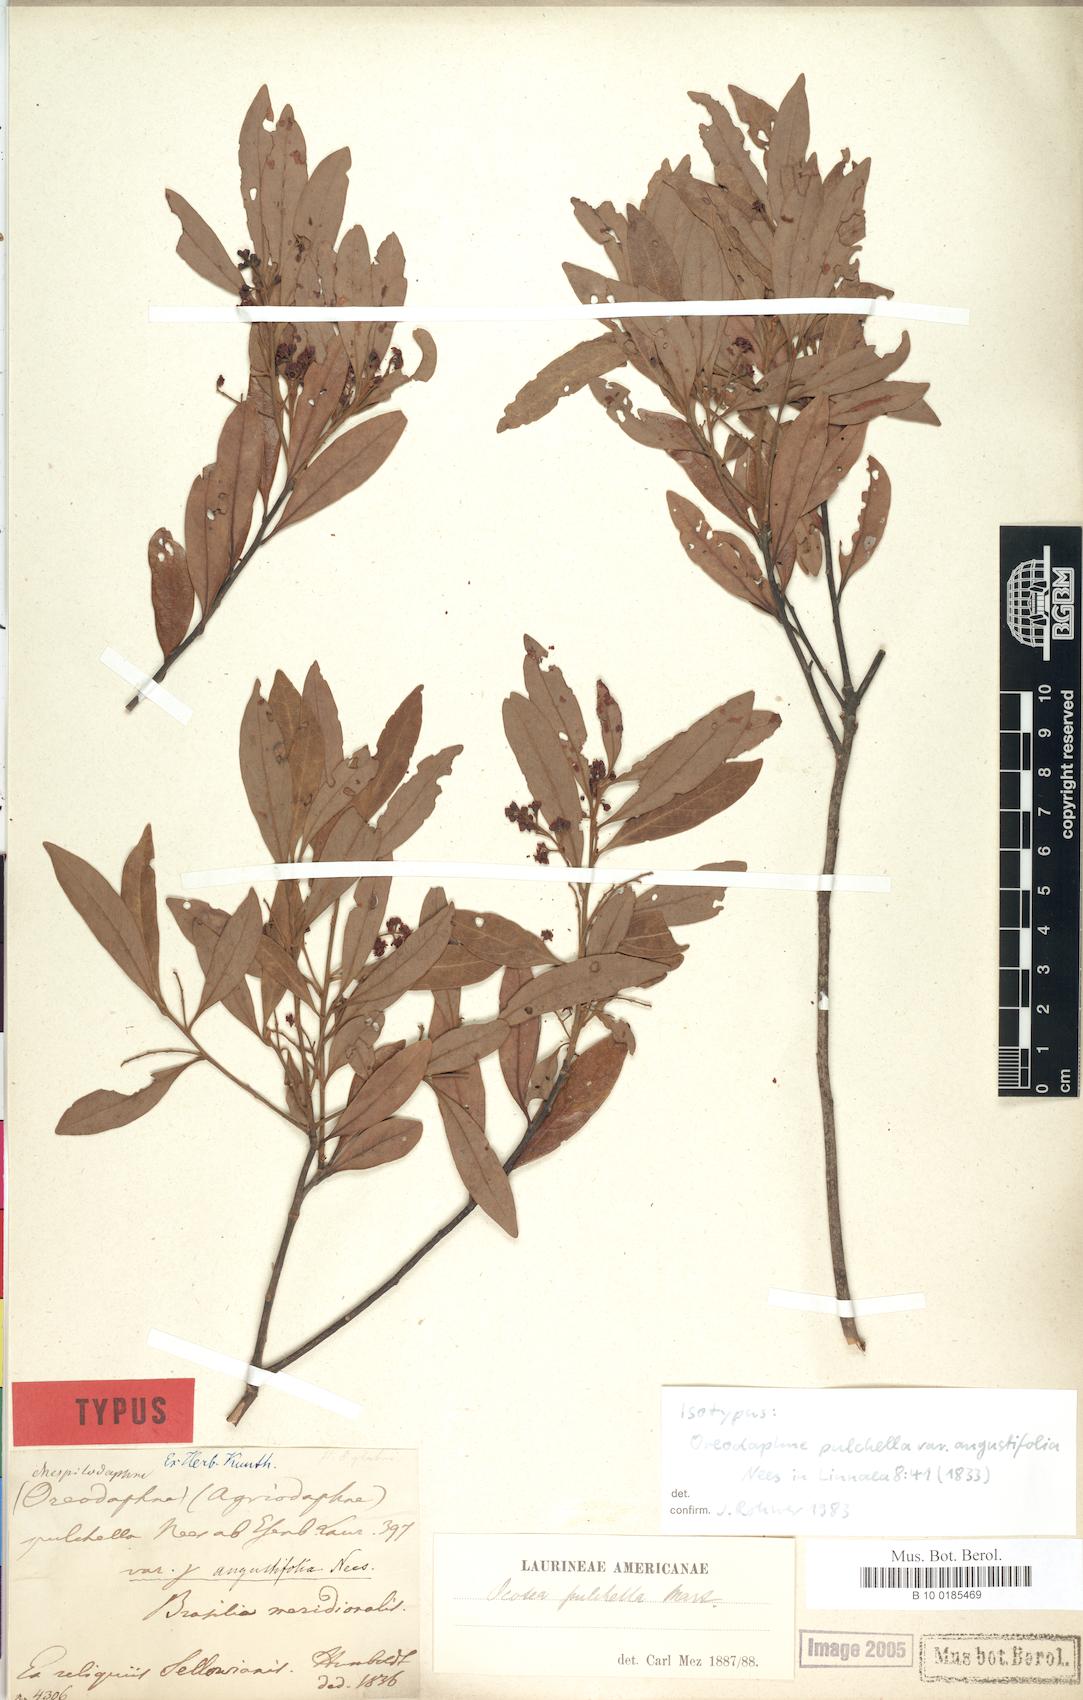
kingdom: Plantae
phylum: Tracheophyta
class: Magnoliopsida
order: Laurales
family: Lauraceae
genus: Mespilodaphne
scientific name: Mespilodaphne pulchella
